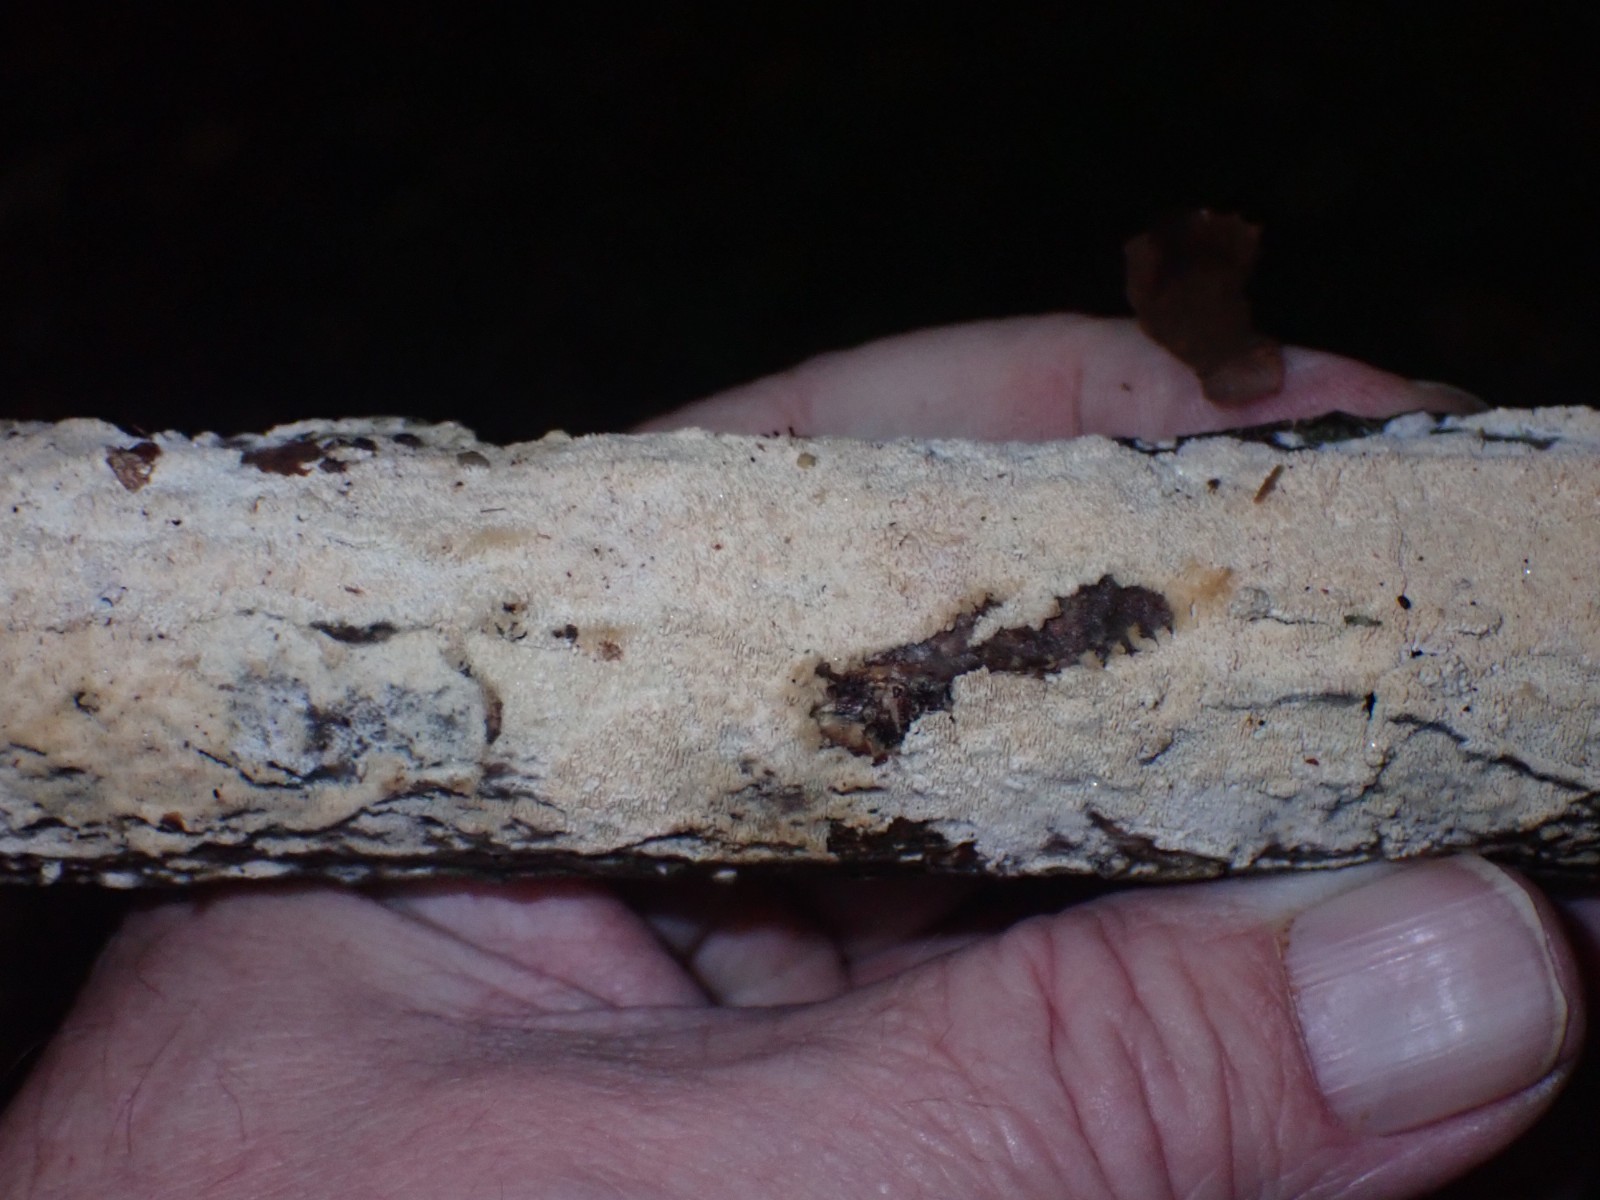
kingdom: Fungi
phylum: Basidiomycota
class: Agaricomycetes
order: Hymenochaetales
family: Schizoporaceae
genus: Xylodon
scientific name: Xylodon
